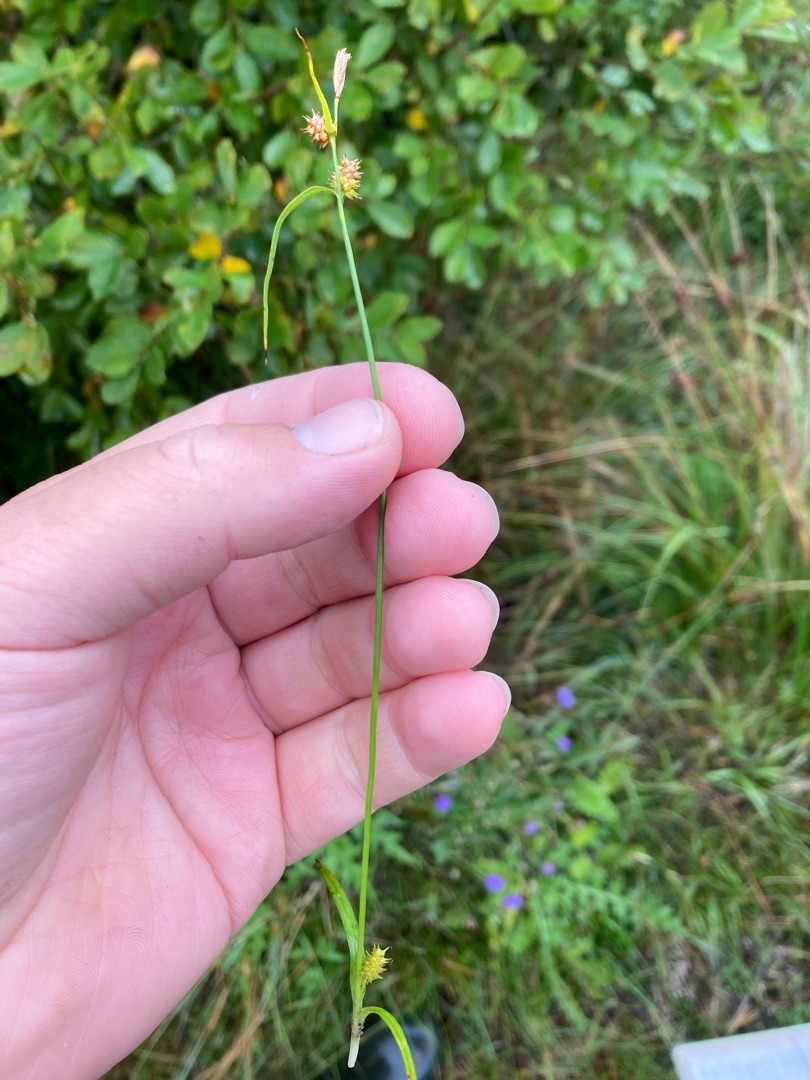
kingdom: Plantae
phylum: Tracheophyta
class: Liliopsida
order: Poales
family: Cyperaceae
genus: Carex
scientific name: Carex demissa
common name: Grøn star
